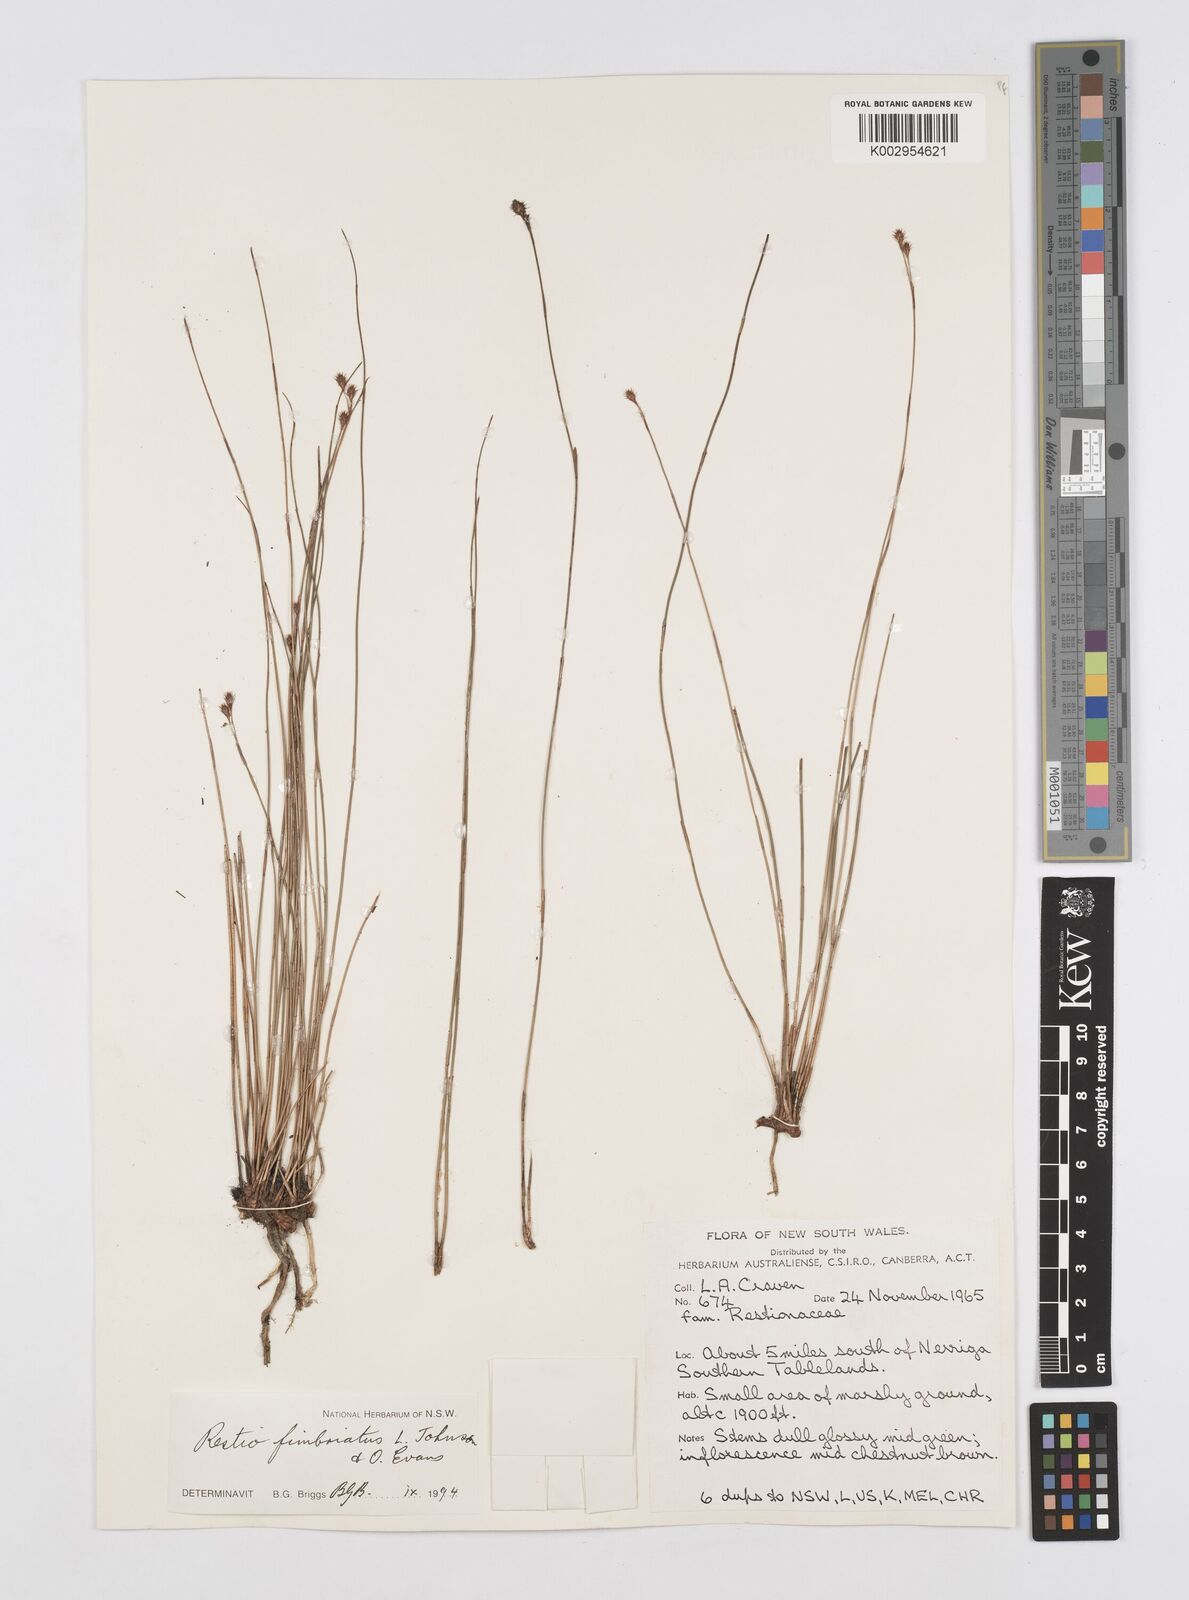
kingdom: Plantae
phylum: Tracheophyta
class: Liliopsida
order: Poales
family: Restionaceae
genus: Baloskion
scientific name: Baloskion fimbriatum
